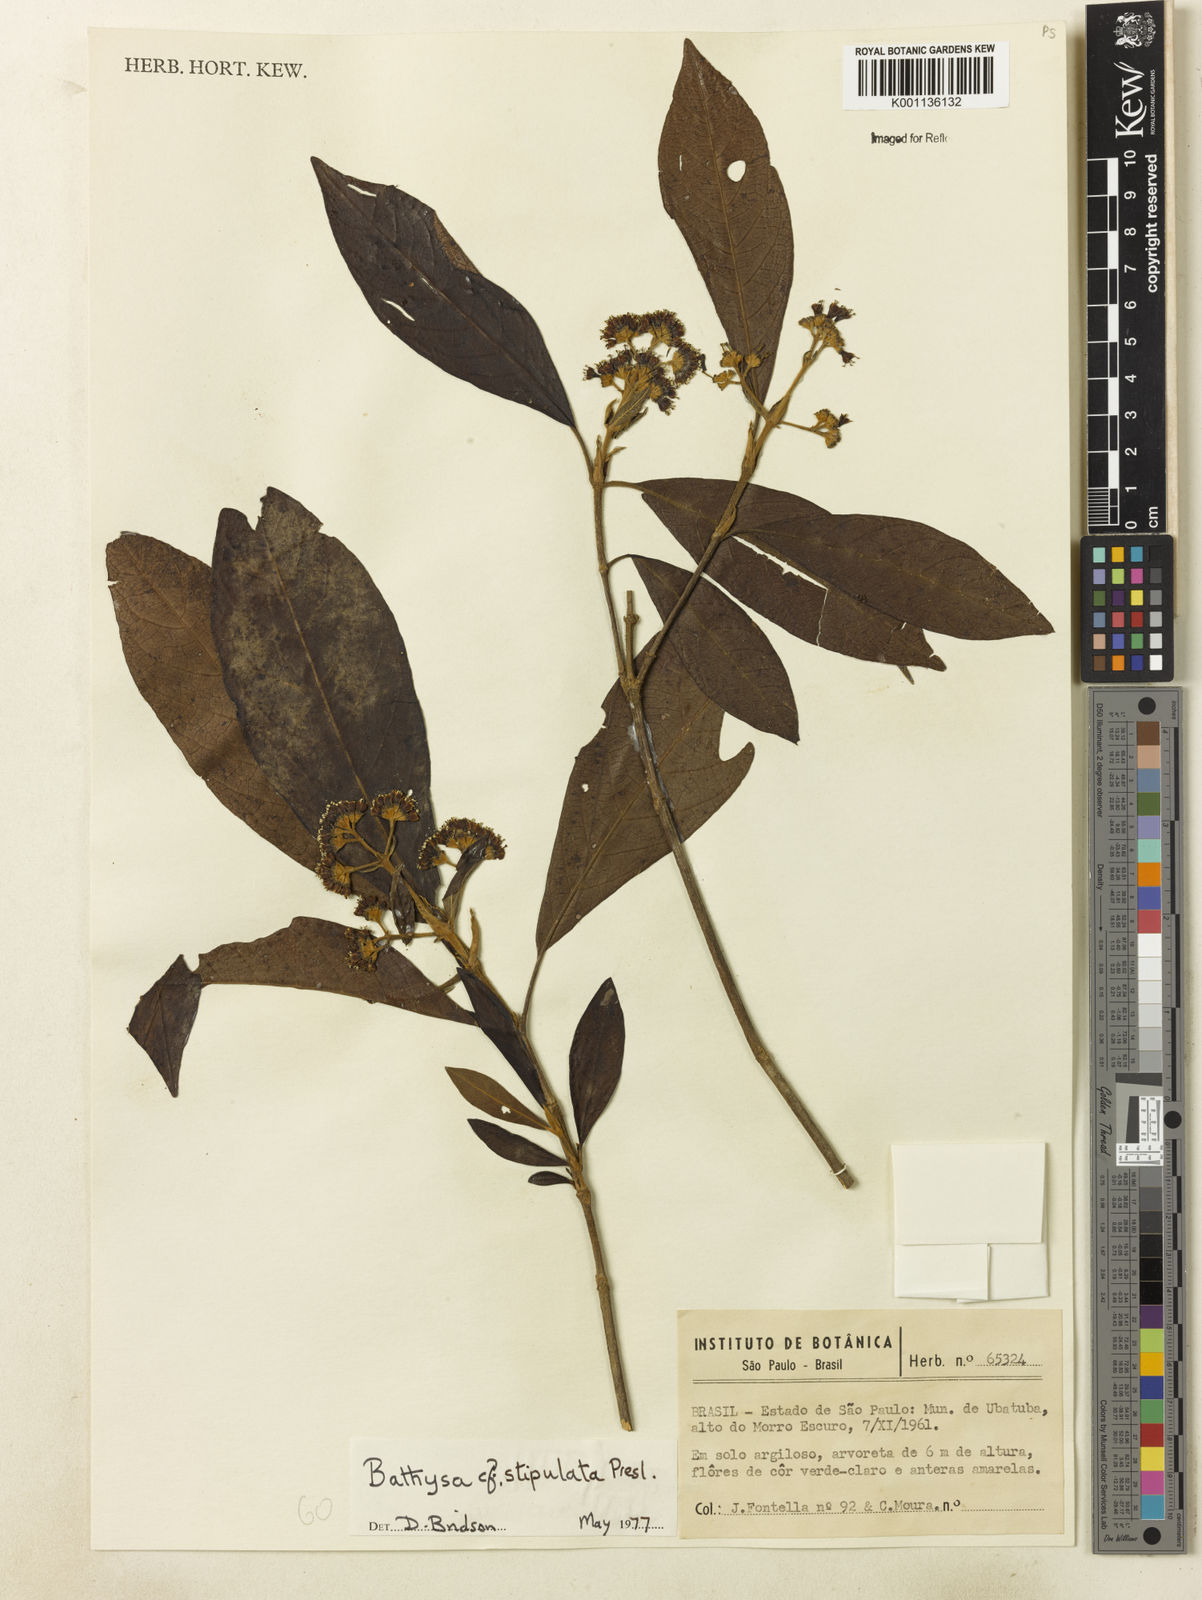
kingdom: Plantae
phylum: Tracheophyta
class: Magnoliopsida
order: Gentianales
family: Rubiaceae
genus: Bathysa
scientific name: Bathysa stipulata
